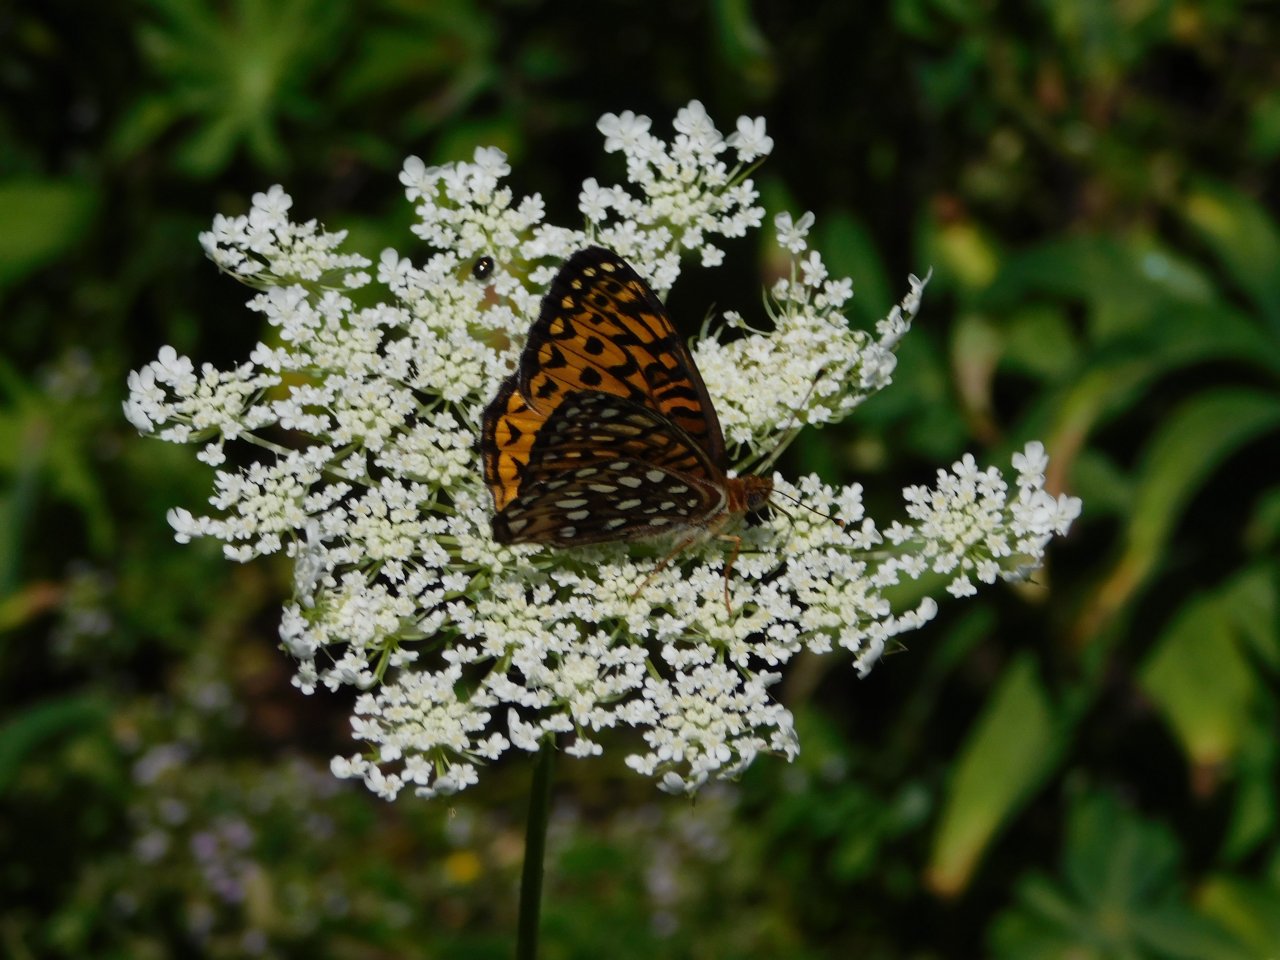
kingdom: Animalia
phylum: Arthropoda
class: Insecta
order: Lepidoptera
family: Nymphalidae
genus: Speyeria
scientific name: Speyeria atlantis
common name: Atlantis Fritillary
